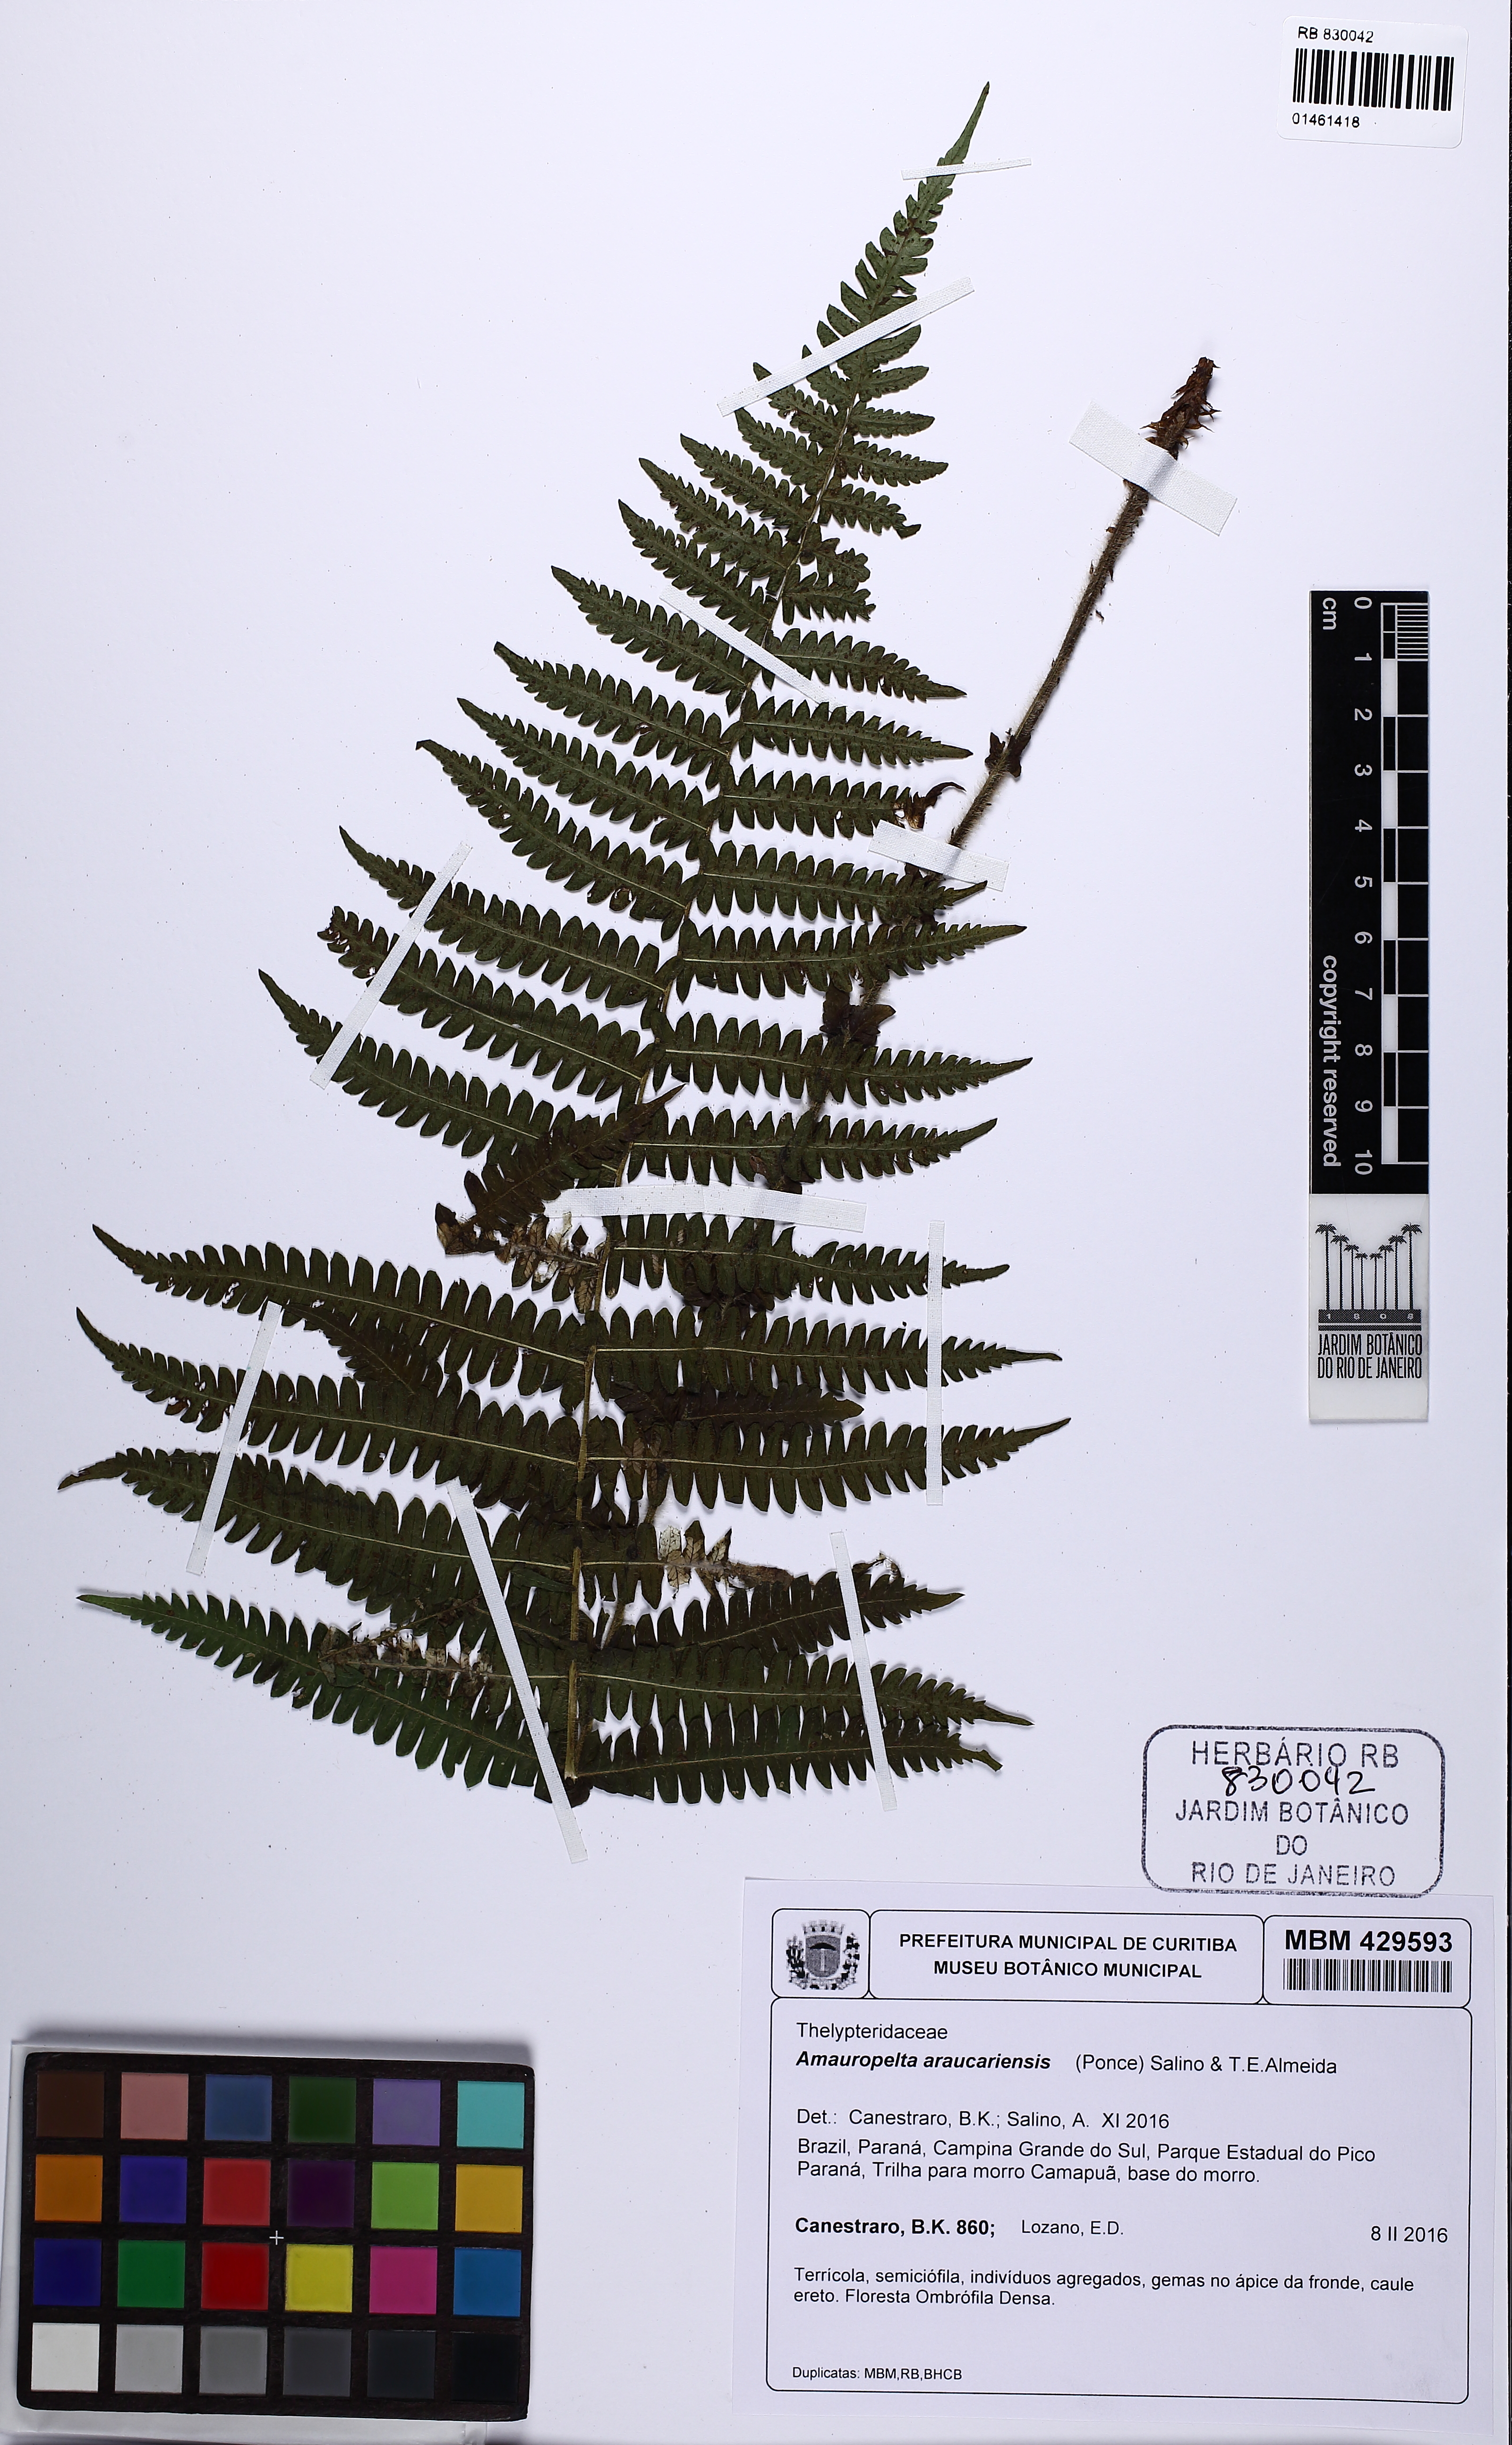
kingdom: Plantae
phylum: Tracheophyta
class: Polypodiopsida
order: Polypodiales
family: Thelypteridaceae
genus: Amauropelta
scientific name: Amauropelta araucariensis
